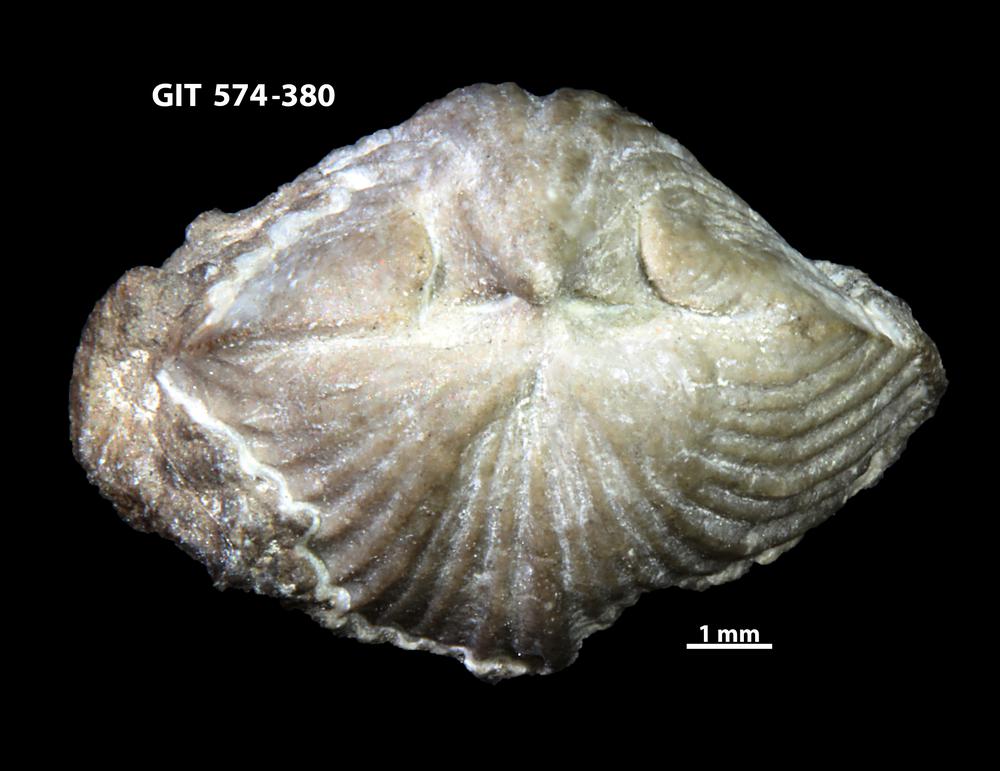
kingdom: Animalia
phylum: Brachiopoda
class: Rhynchonellata
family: Atrypinidae
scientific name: Atrypinidae
